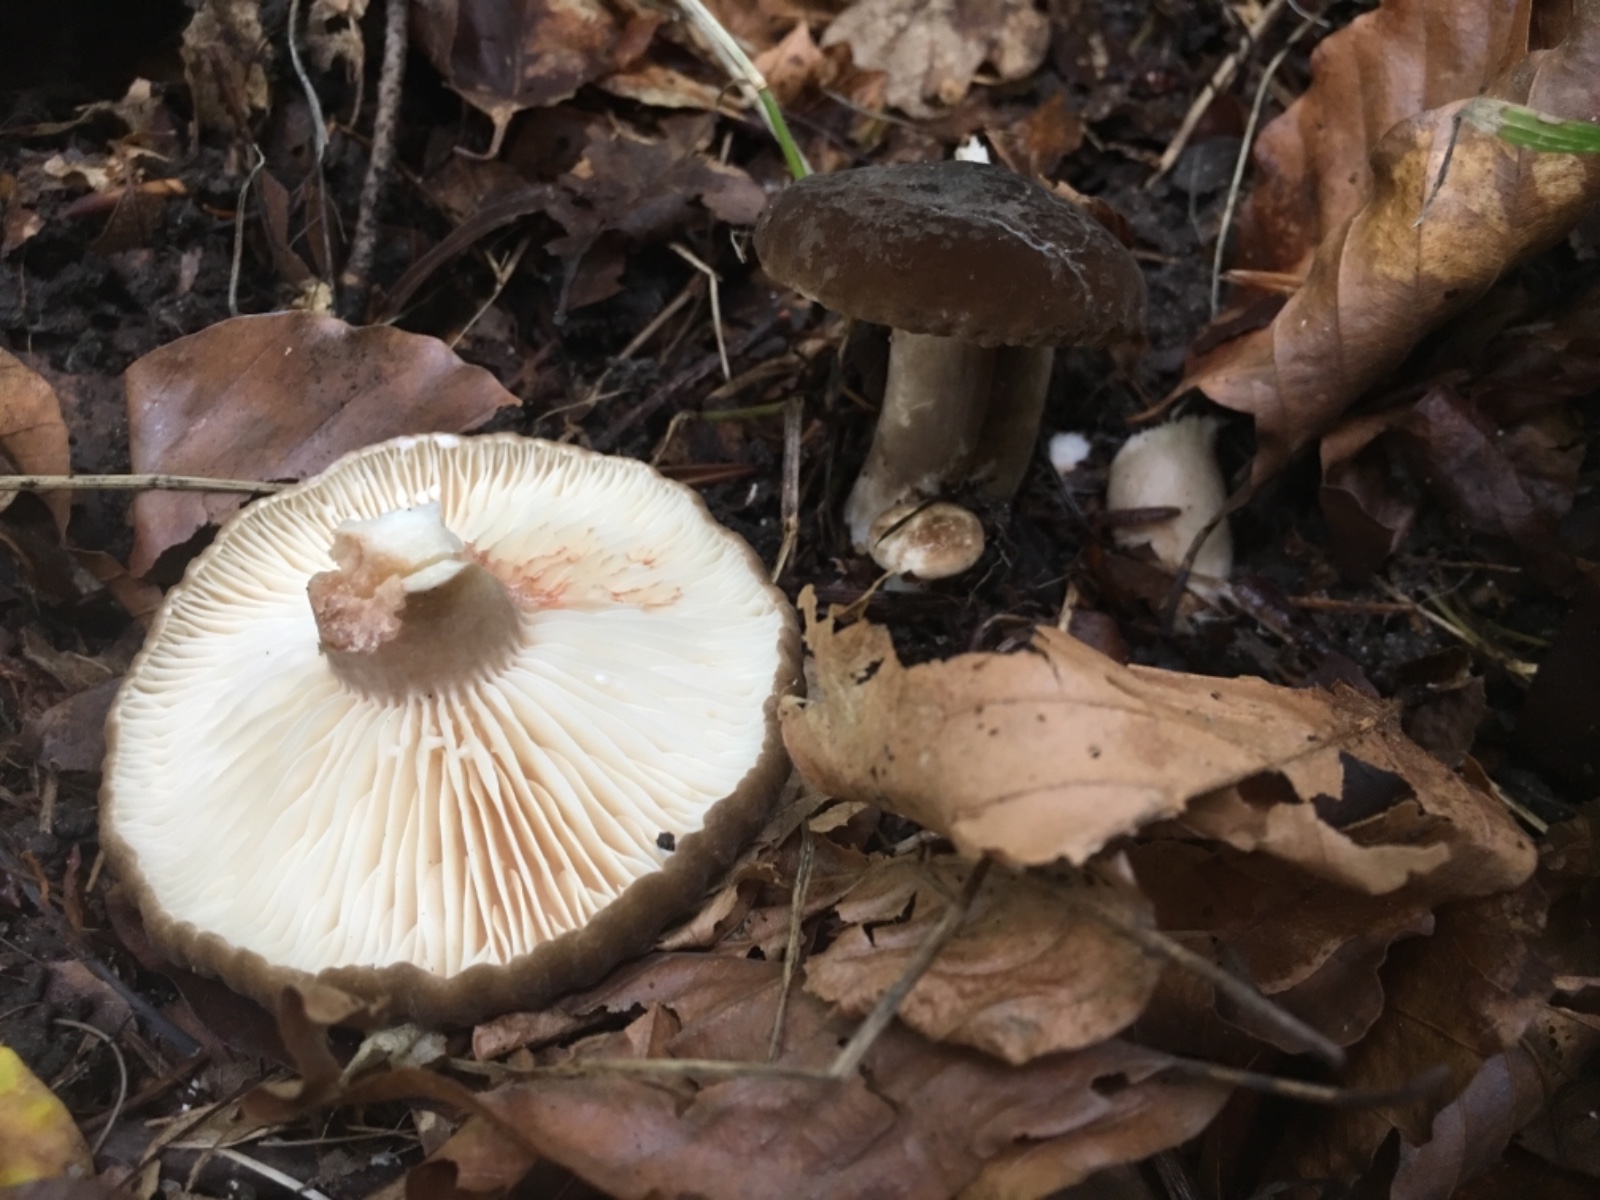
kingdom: Fungi
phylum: Basidiomycota
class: Agaricomycetes
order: Russulales
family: Russulaceae
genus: Lactarius
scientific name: Lactarius romagnesii
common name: fjernbladet mælkehat
